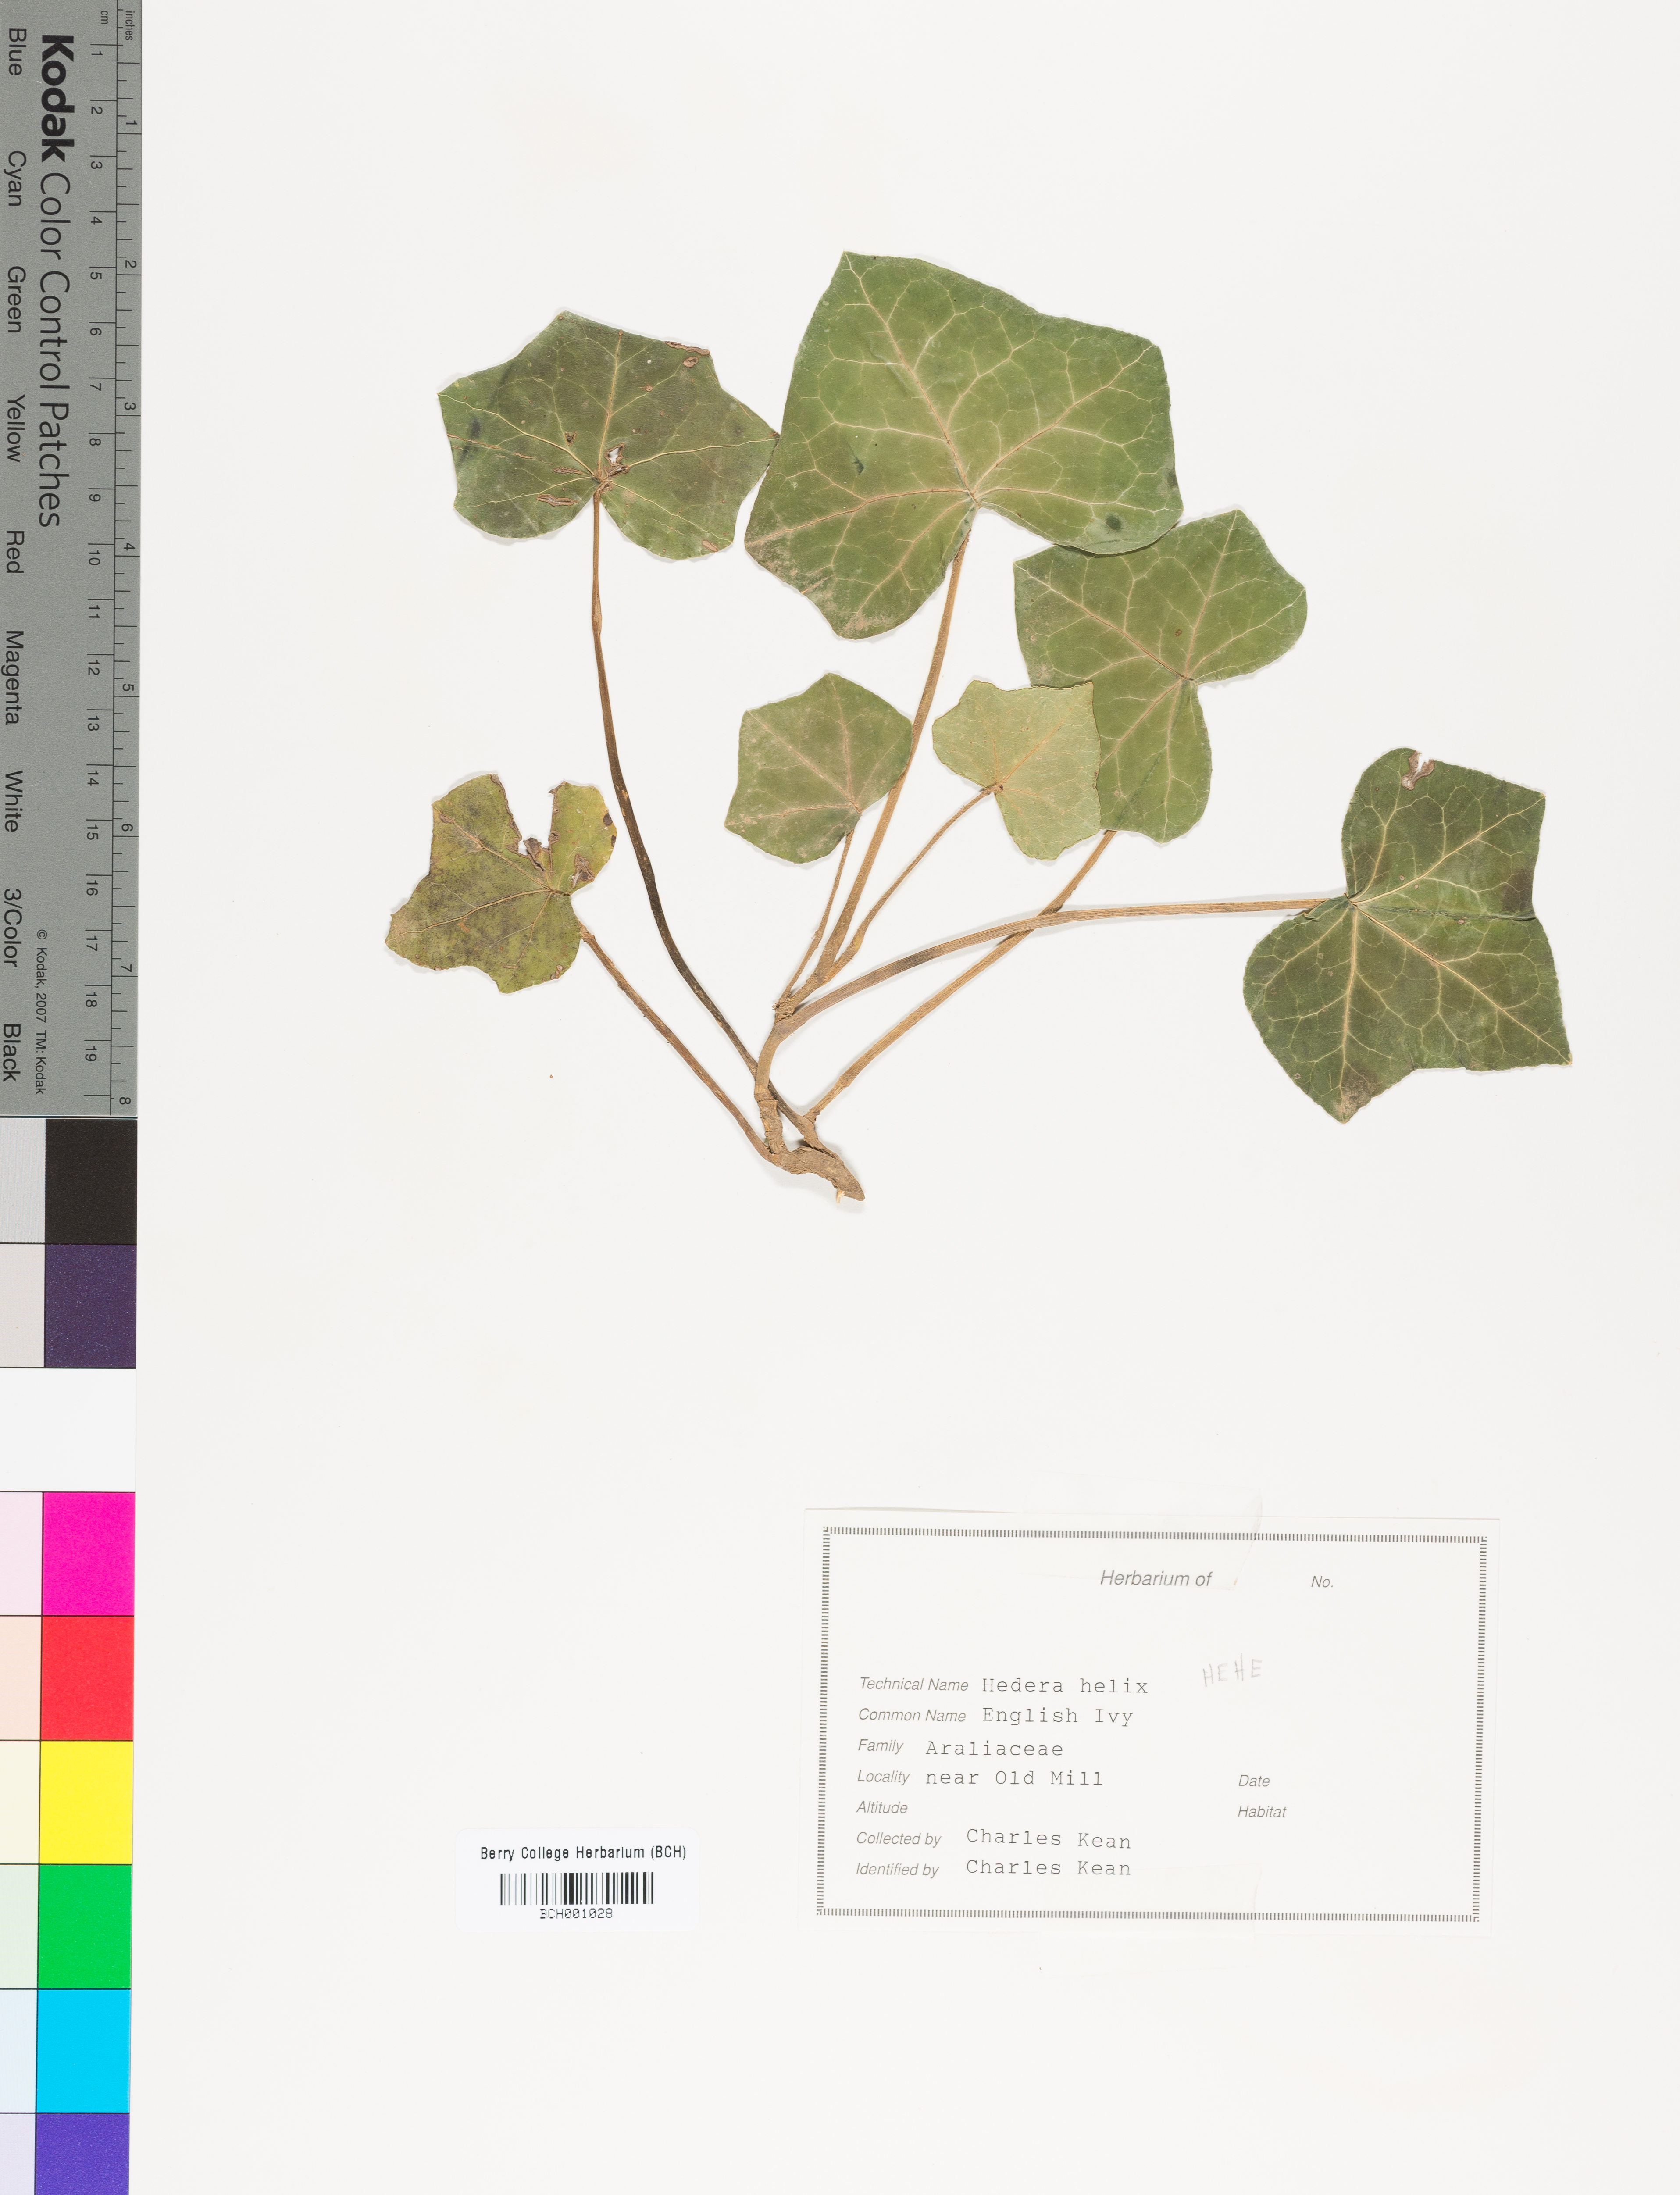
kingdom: Plantae
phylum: Tracheophyta
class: Magnoliopsida
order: Apiales
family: Araliaceae
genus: Hedera
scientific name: Hedera helix
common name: Ivy
